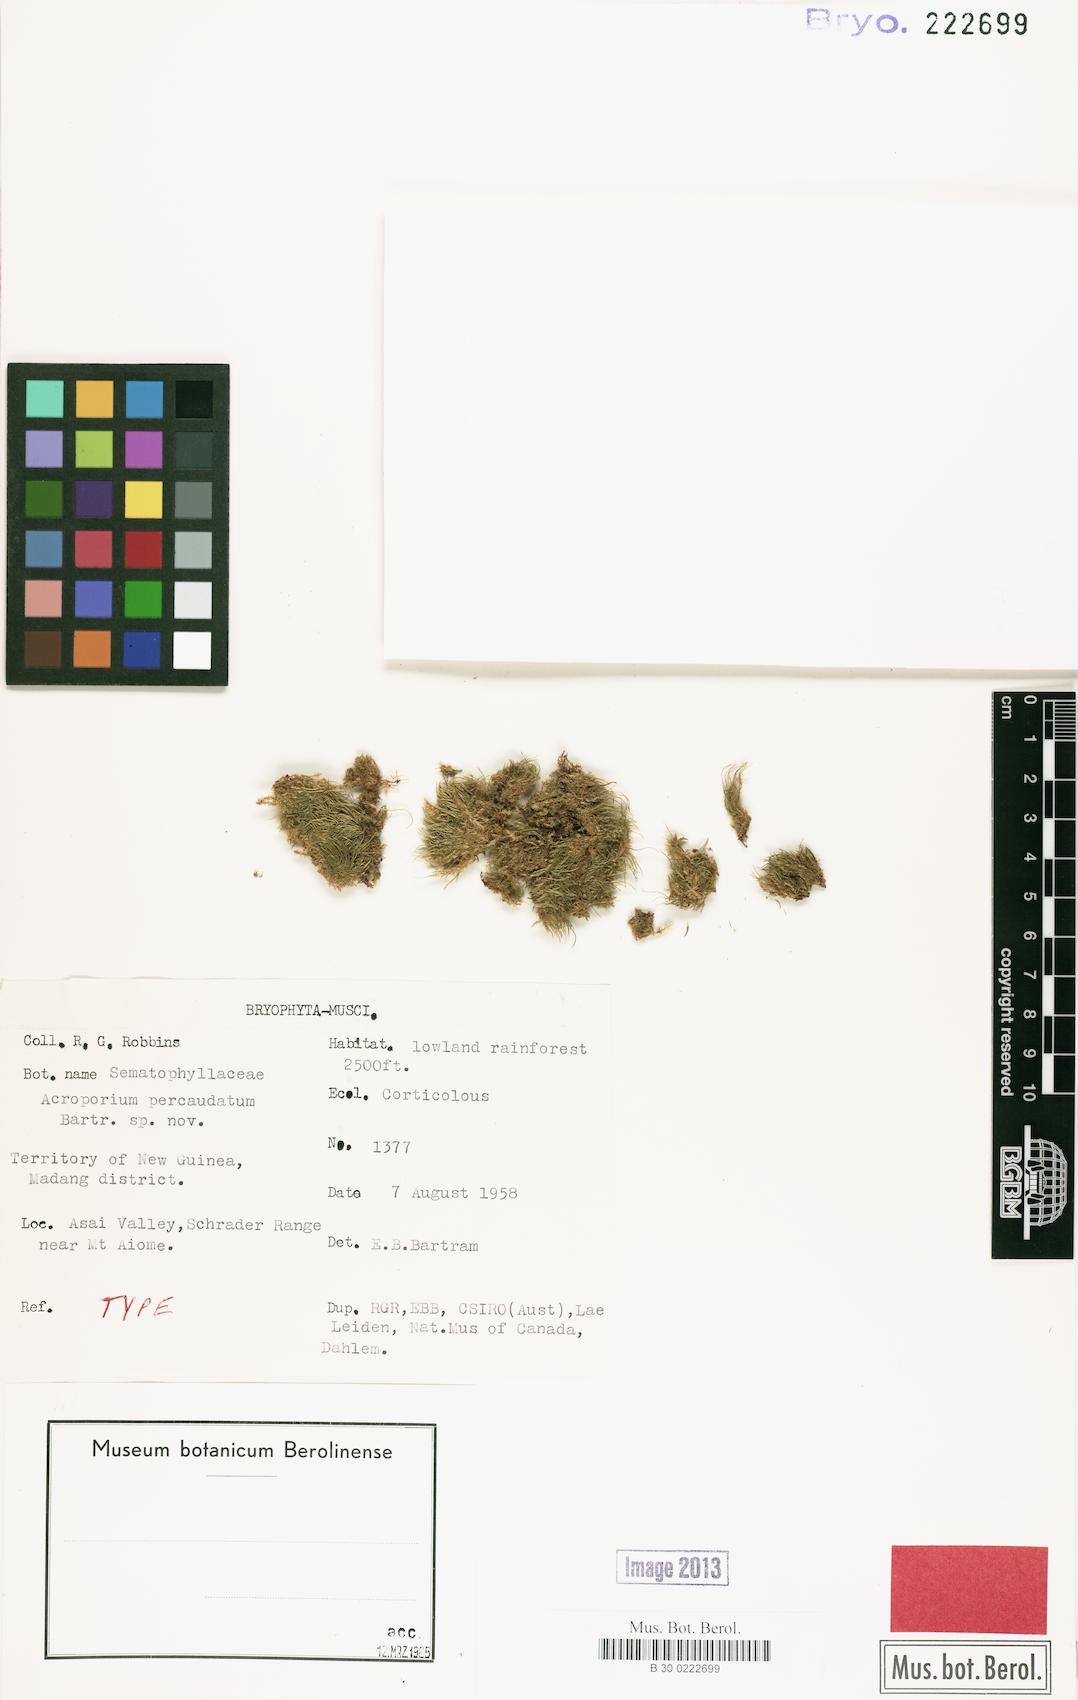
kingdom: Plantae
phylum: Bryophyta
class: Bryopsida
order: Hypnales
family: Sematophyllaceae
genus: Acroporium
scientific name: Acroporium lamprophyllum
